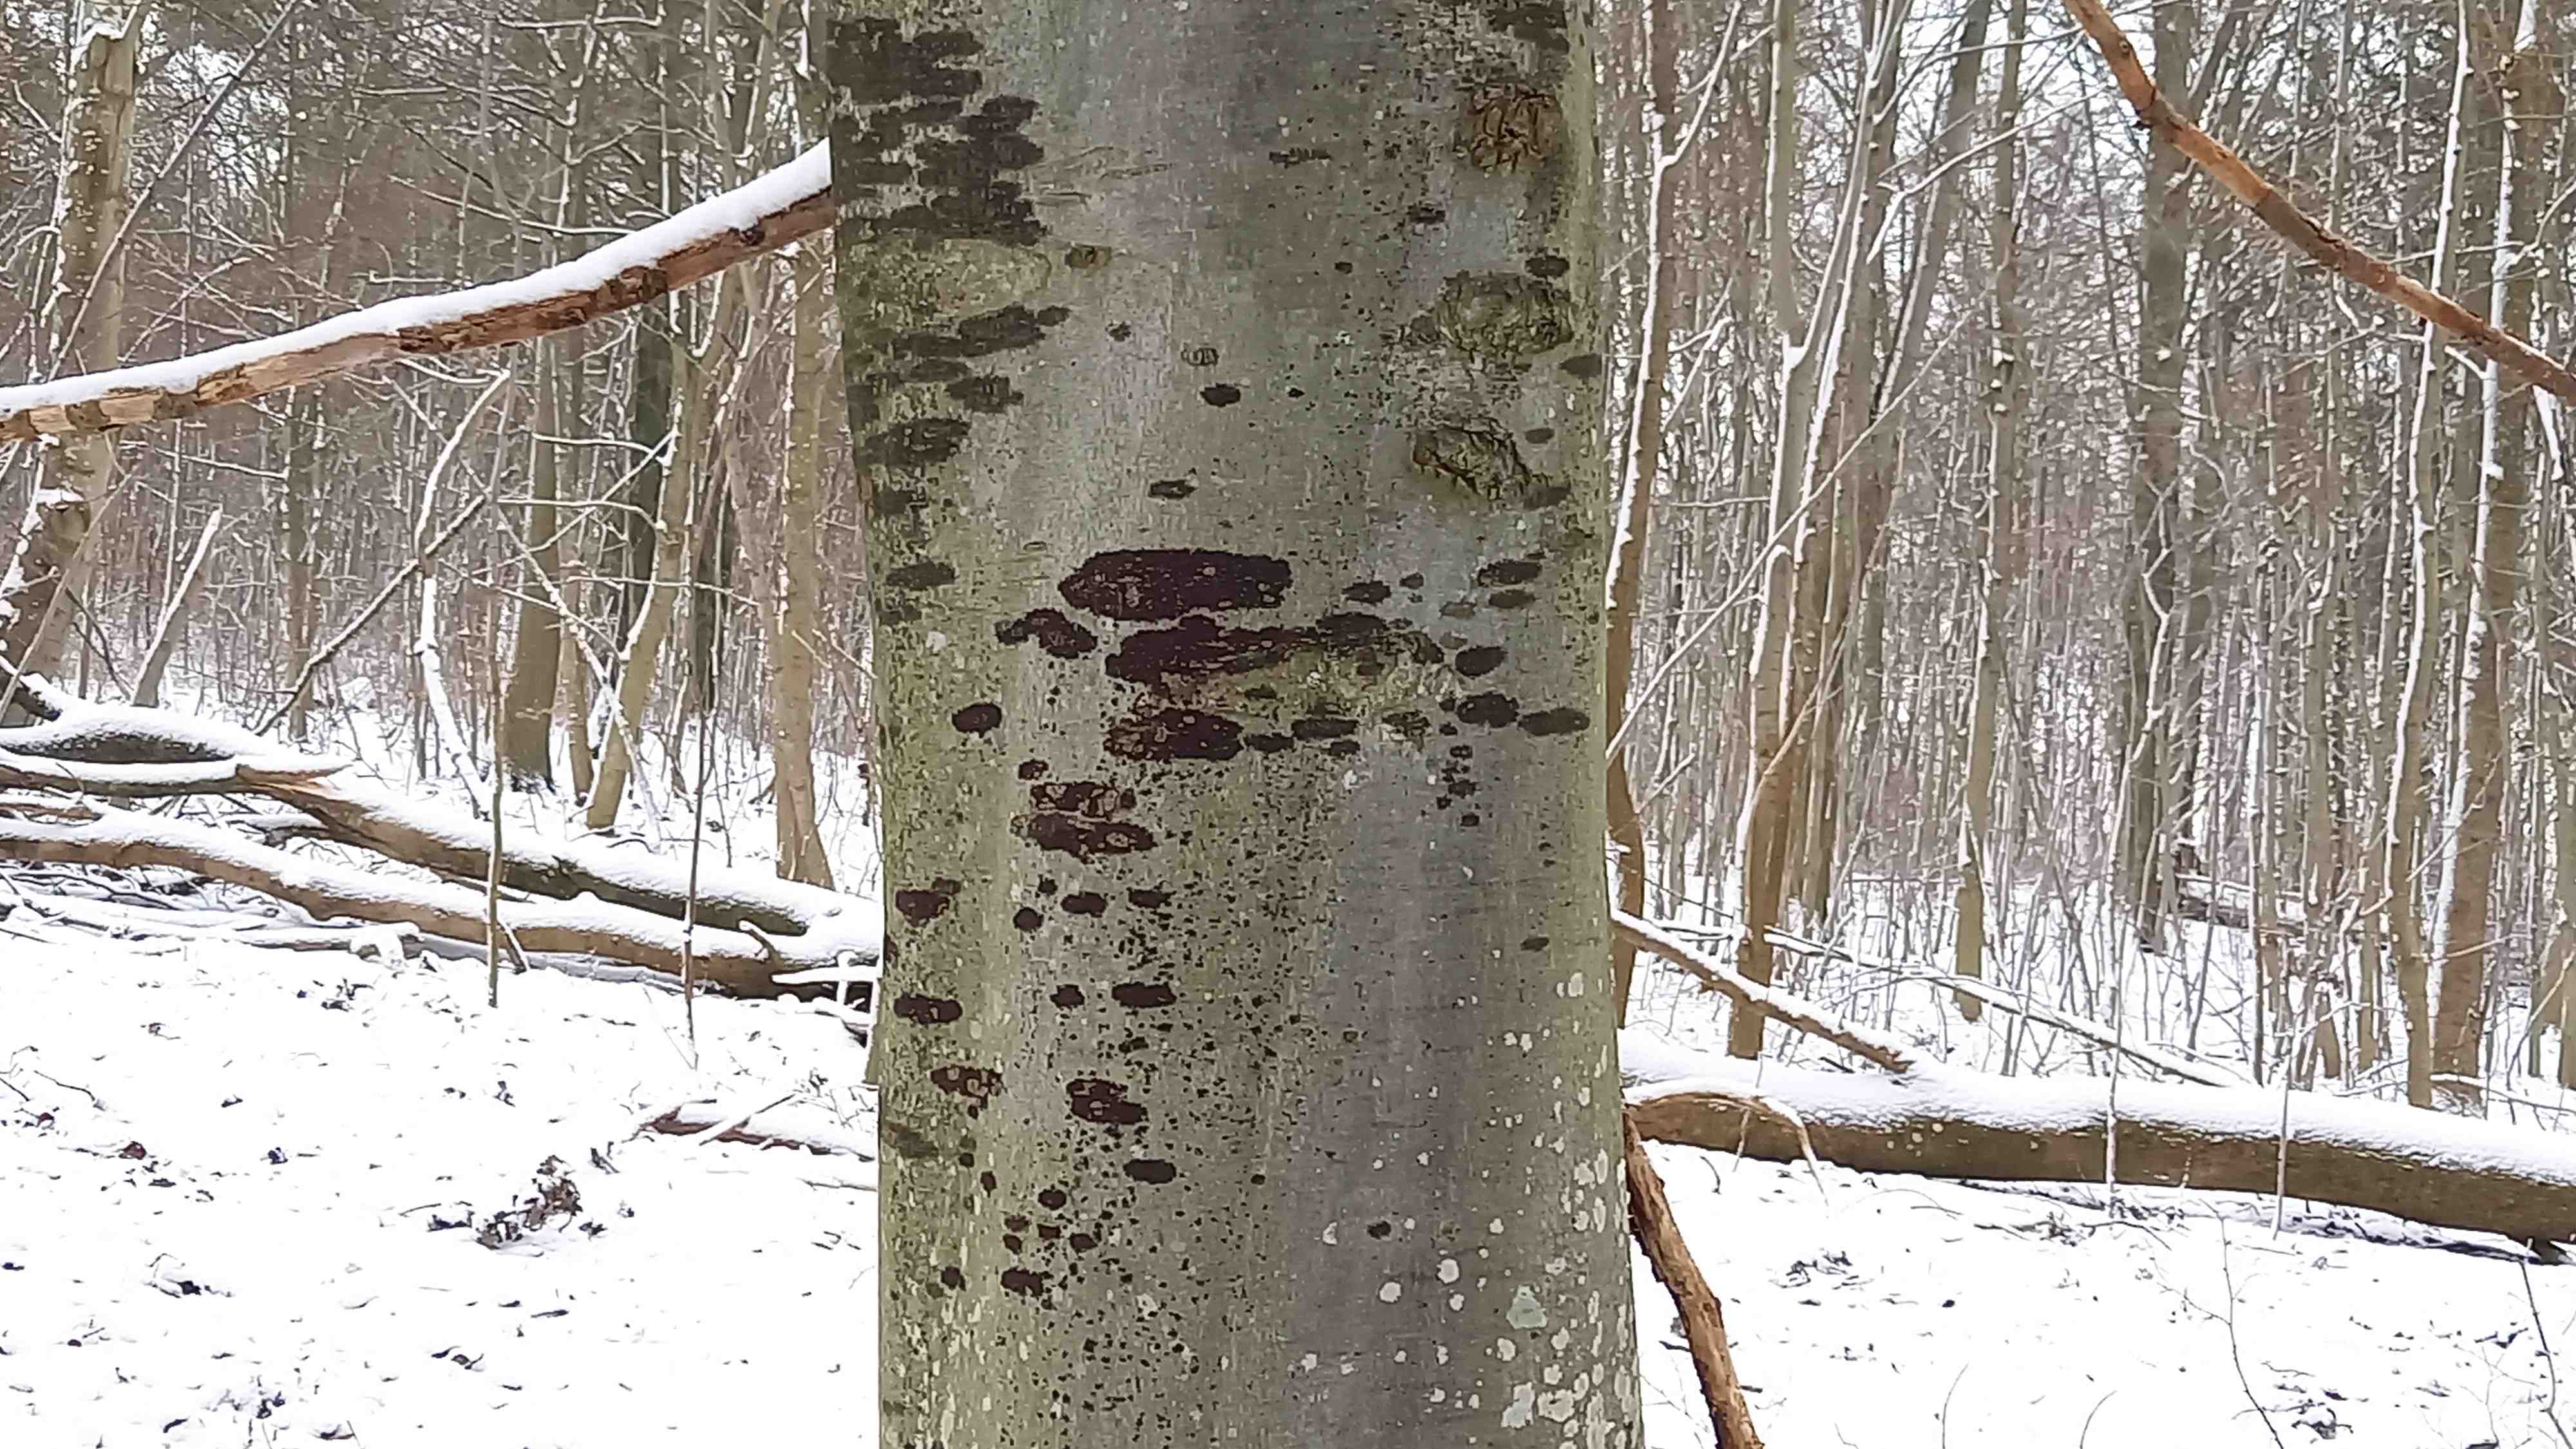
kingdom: Fungi
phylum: Ascomycota
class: Leotiomycetes
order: Rhytismatales
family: Ascodichaenaceae
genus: Ascodichaena
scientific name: Ascodichaena rugosa
